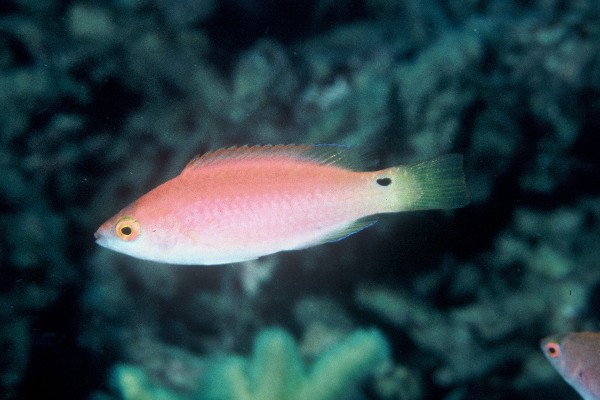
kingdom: Animalia
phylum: Chordata
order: Perciformes
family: Labridae
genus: Cirrhilabrus
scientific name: Cirrhilabrus walindi
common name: Walindi fairy-warsse
